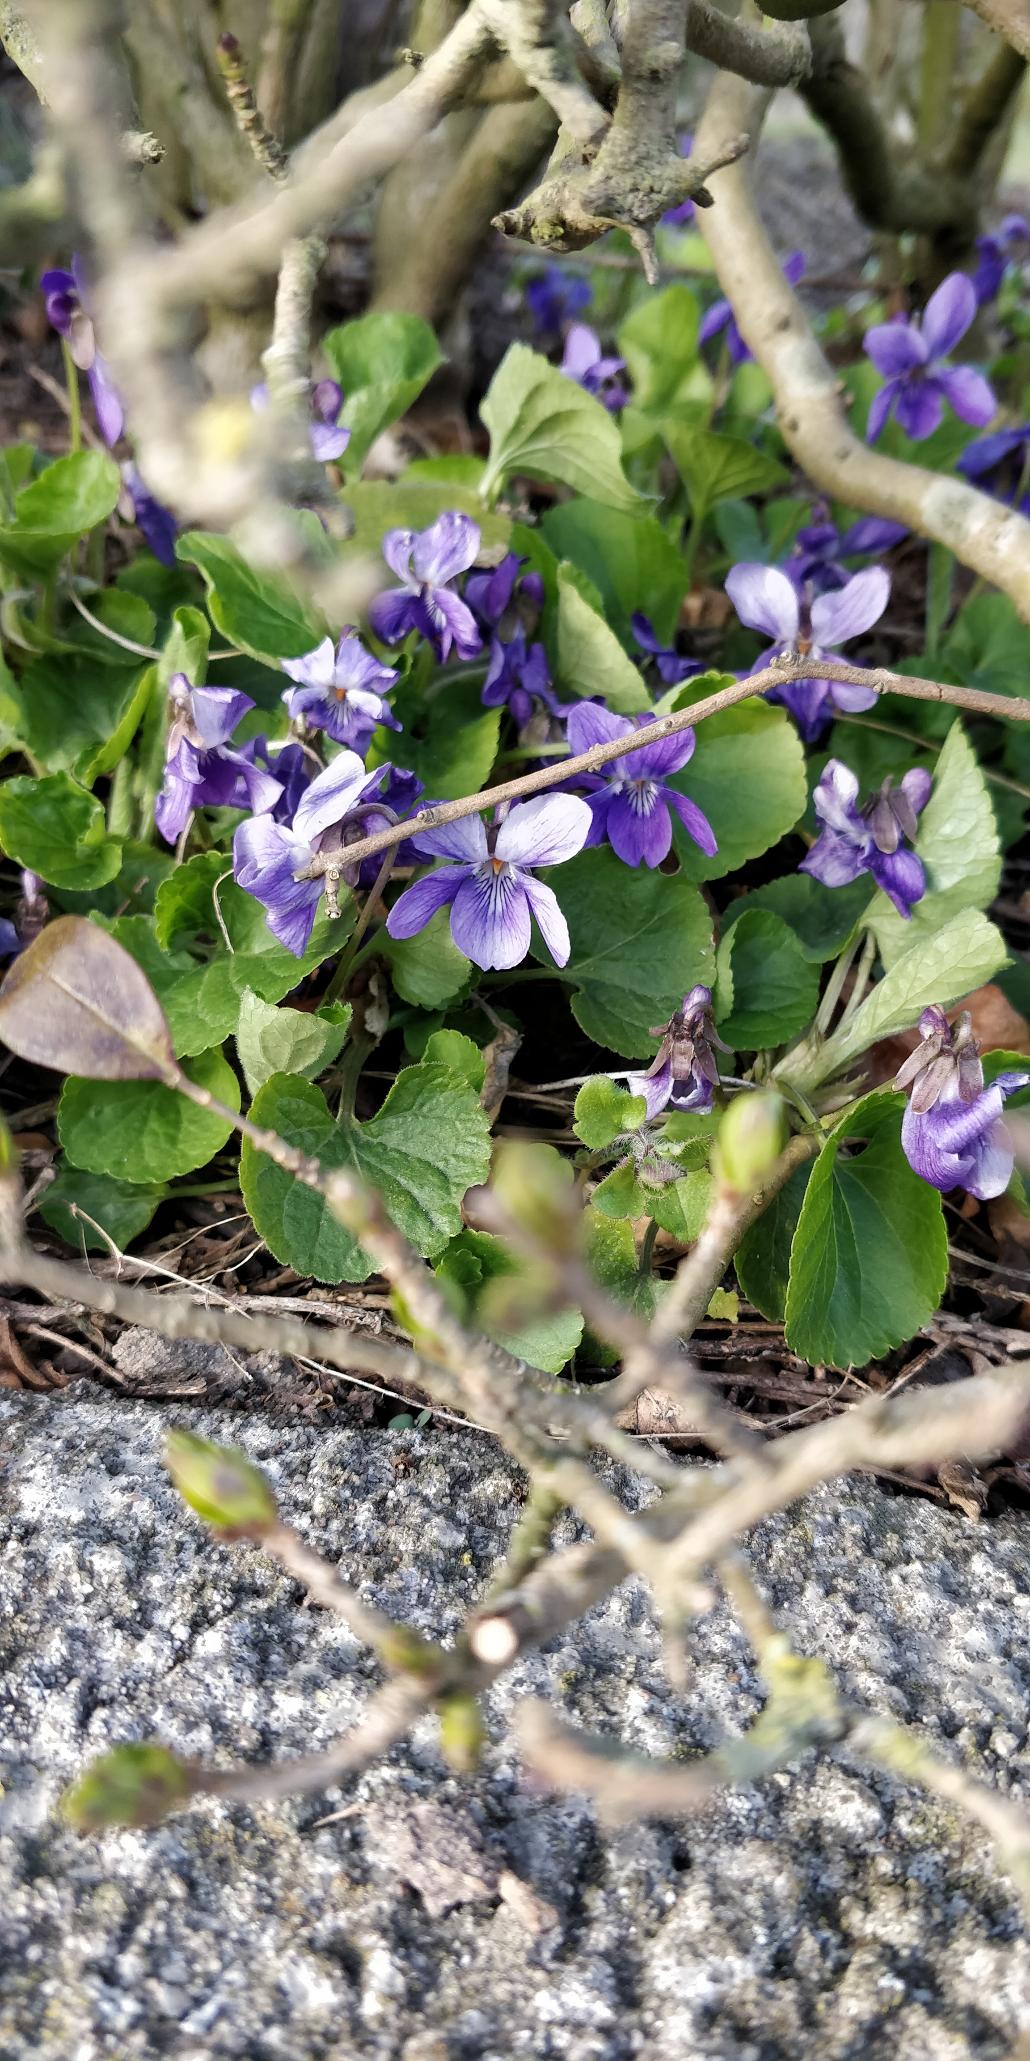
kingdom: Plantae
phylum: Tracheophyta
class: Magnoliopsida
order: Malpighiales
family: Violaceae
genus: Viola
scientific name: Viola odorata
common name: Marts-viol
